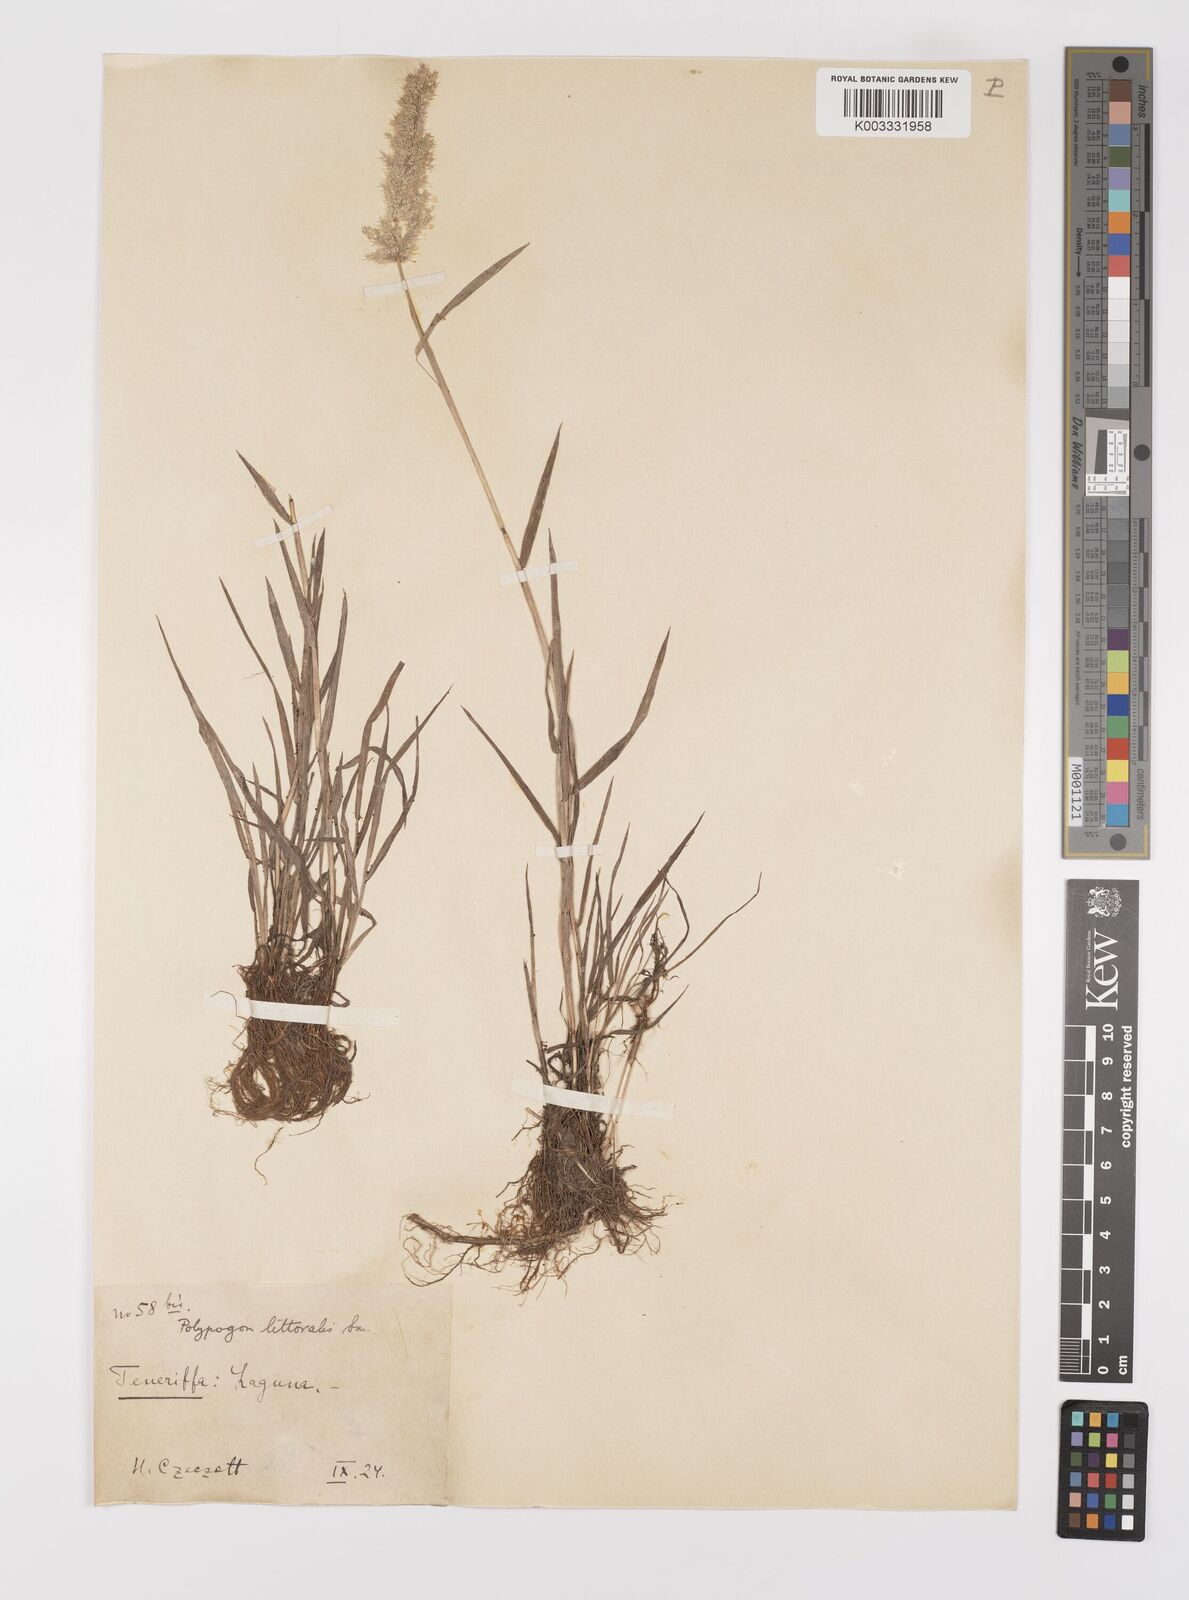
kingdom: Plantae
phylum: Tracheophyta
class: Liliopsida
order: Poales
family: Poaceae
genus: Polypogon
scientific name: Polypogon fugax
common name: Asia minor bluegrass
